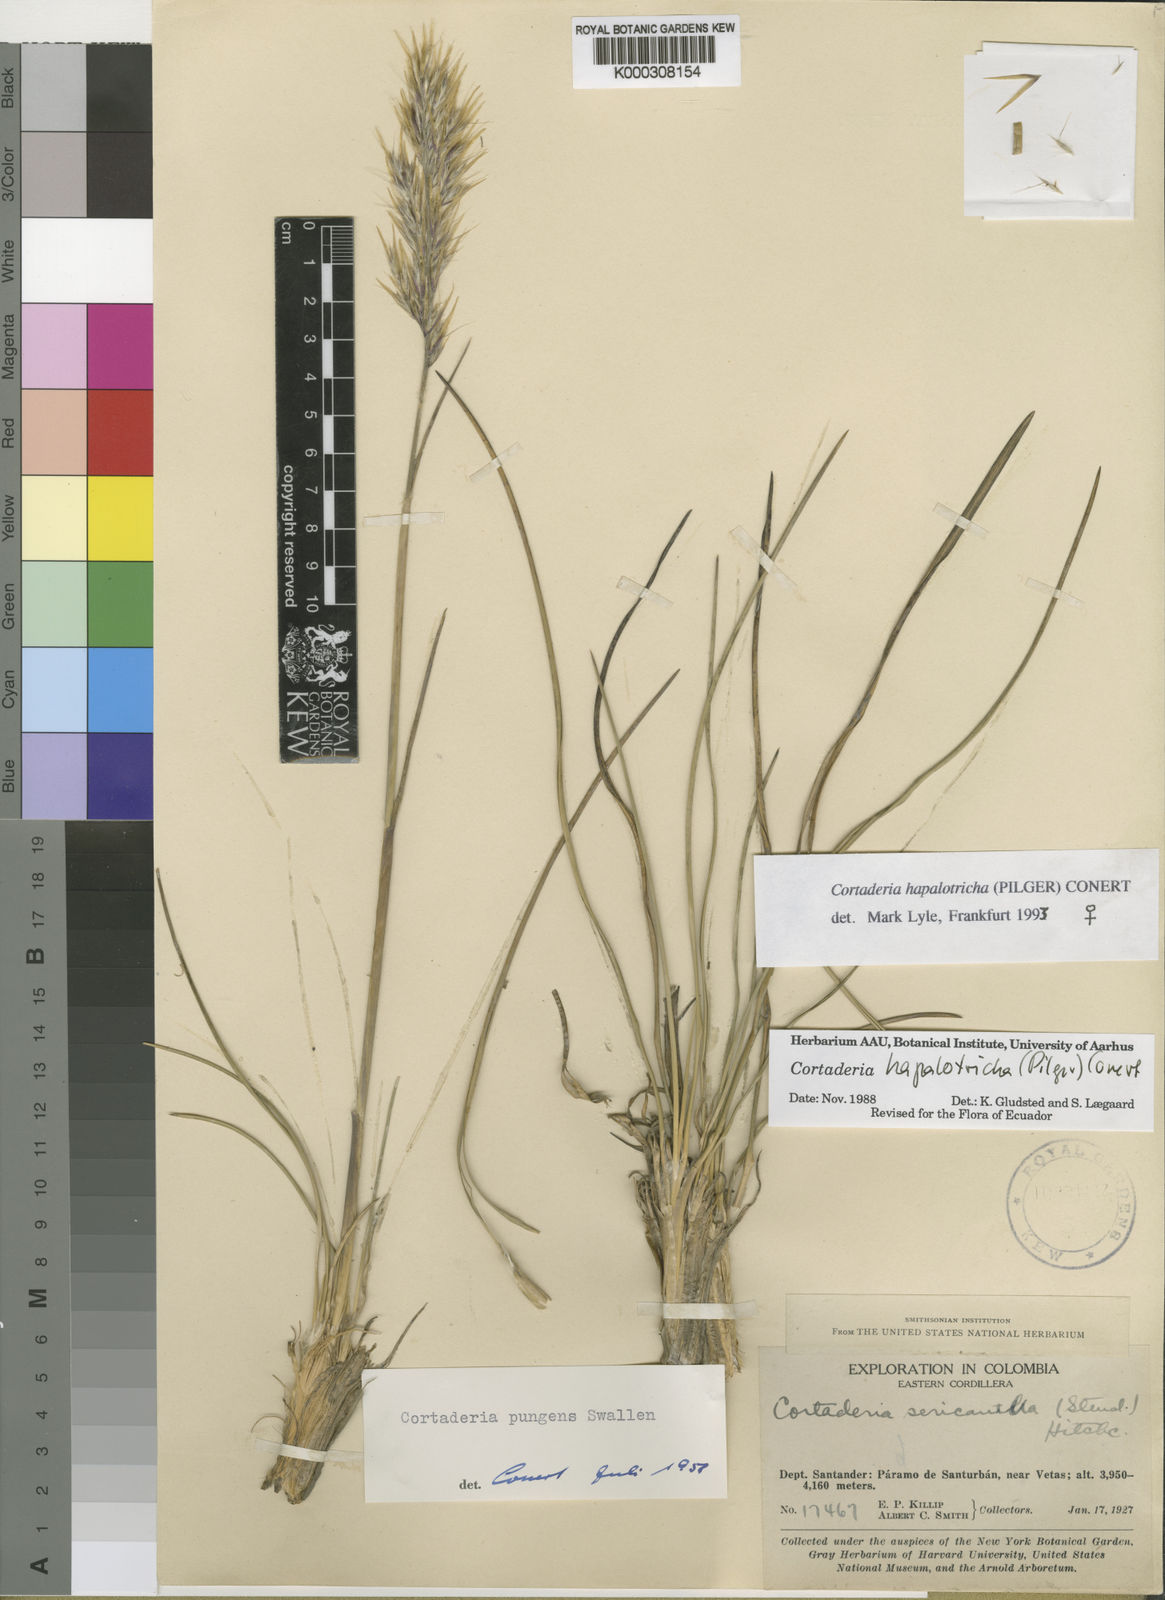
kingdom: Plantae
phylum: Tracheophyta
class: Liliopsida
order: Poales
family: Poaceae
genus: Cortaderia
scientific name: Cortaderia hapalotricha
